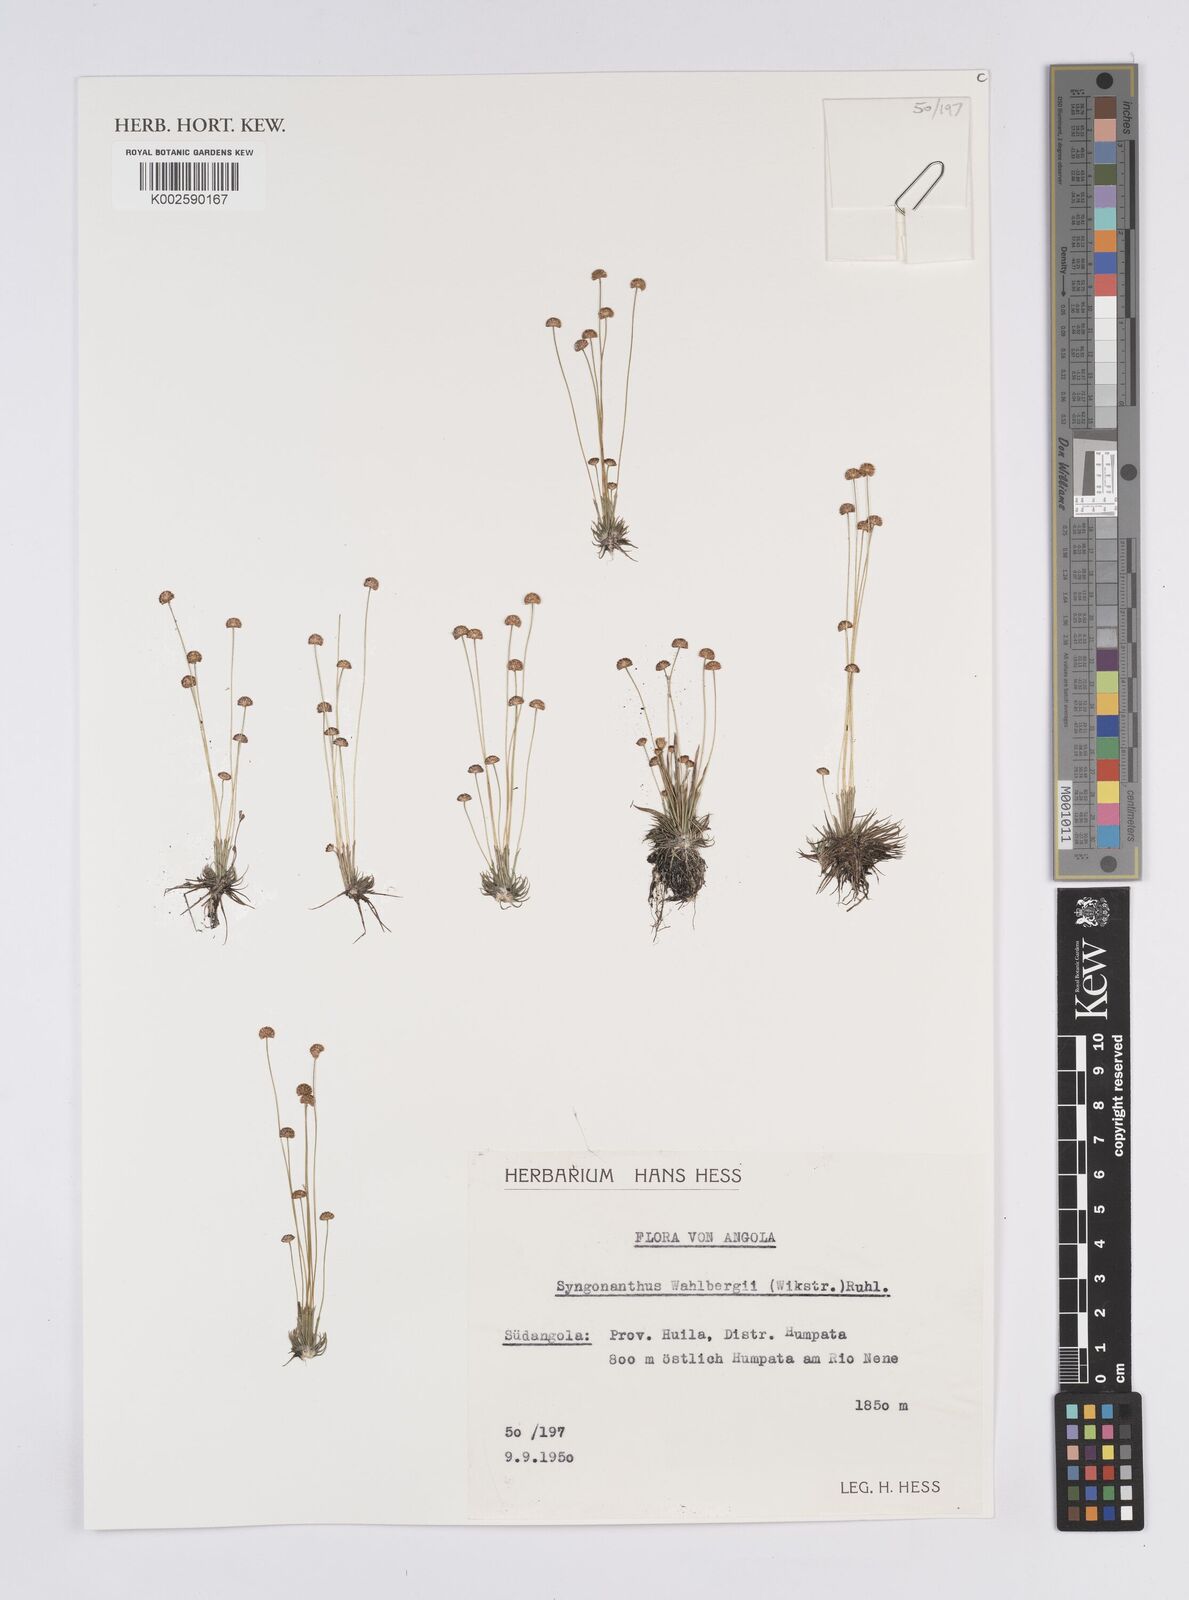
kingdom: Plantae
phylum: Tracheophyta
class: Liliopsida
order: Poales
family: Eriocaulaceae
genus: Syngonanthus
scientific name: Syngonanthus wahlbergii
